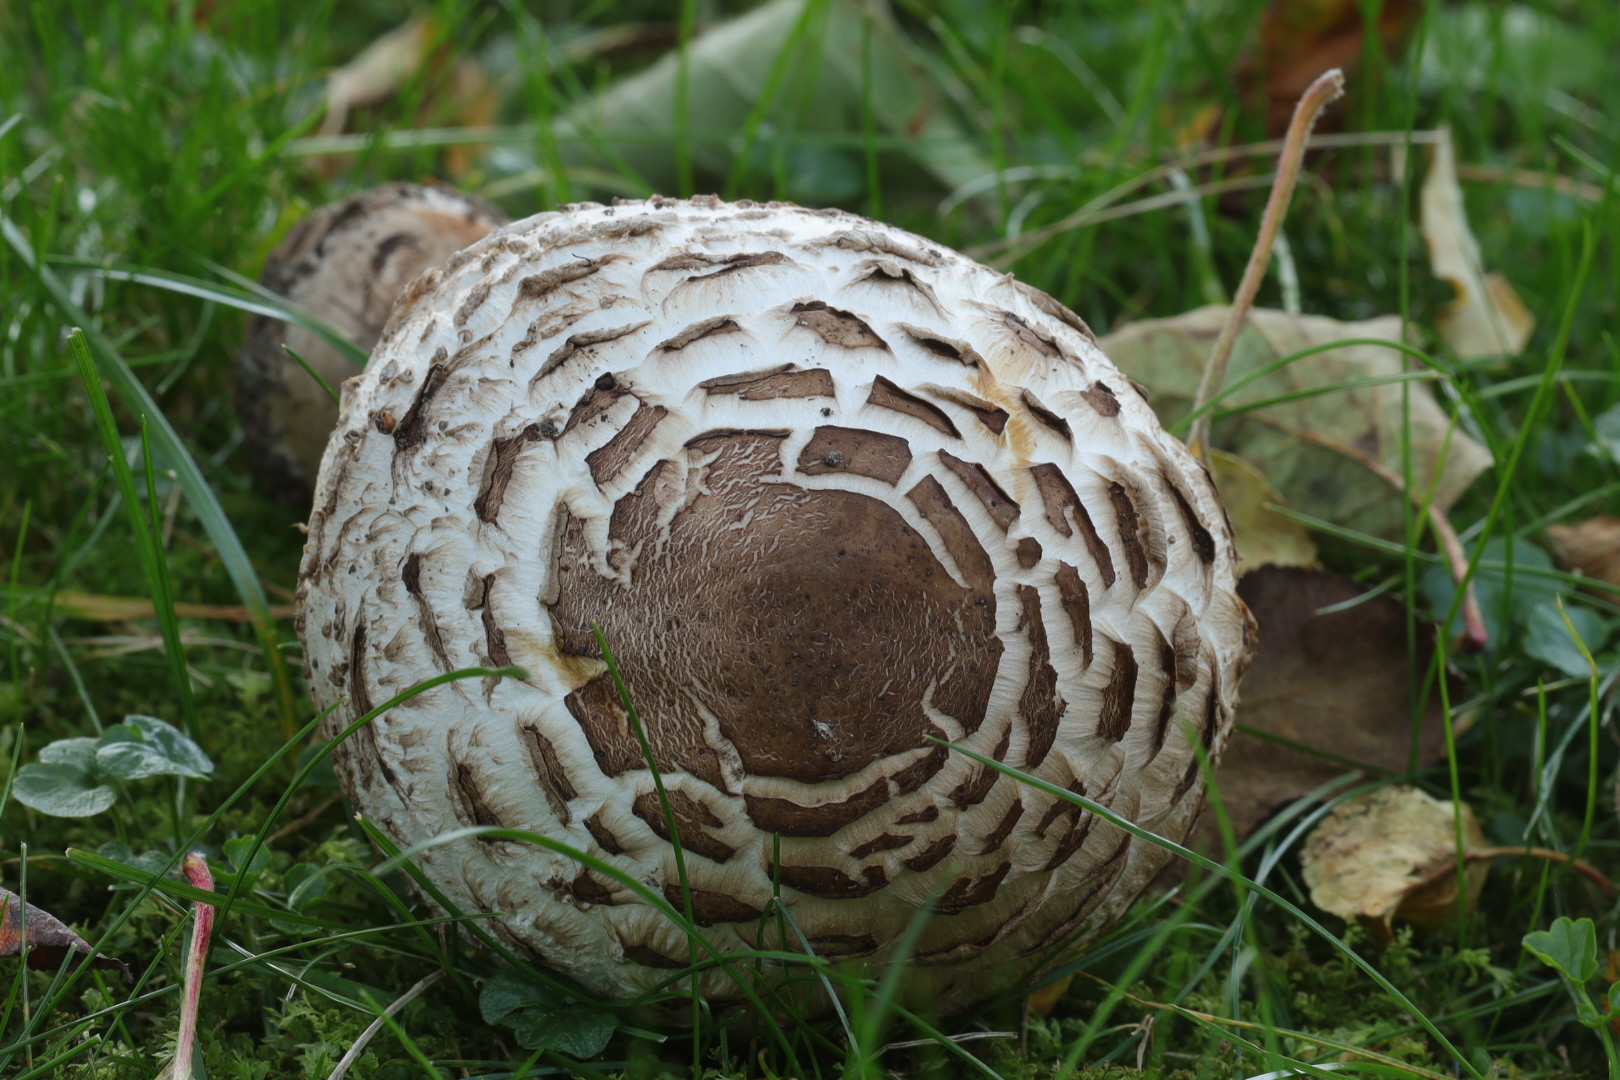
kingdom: Fungi
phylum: Basidiomycota
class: Agaricomycetes
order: Agaricales
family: Agaricaceae
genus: Chlorophyllum
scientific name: Chlorophyllum
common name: rabarberhat
